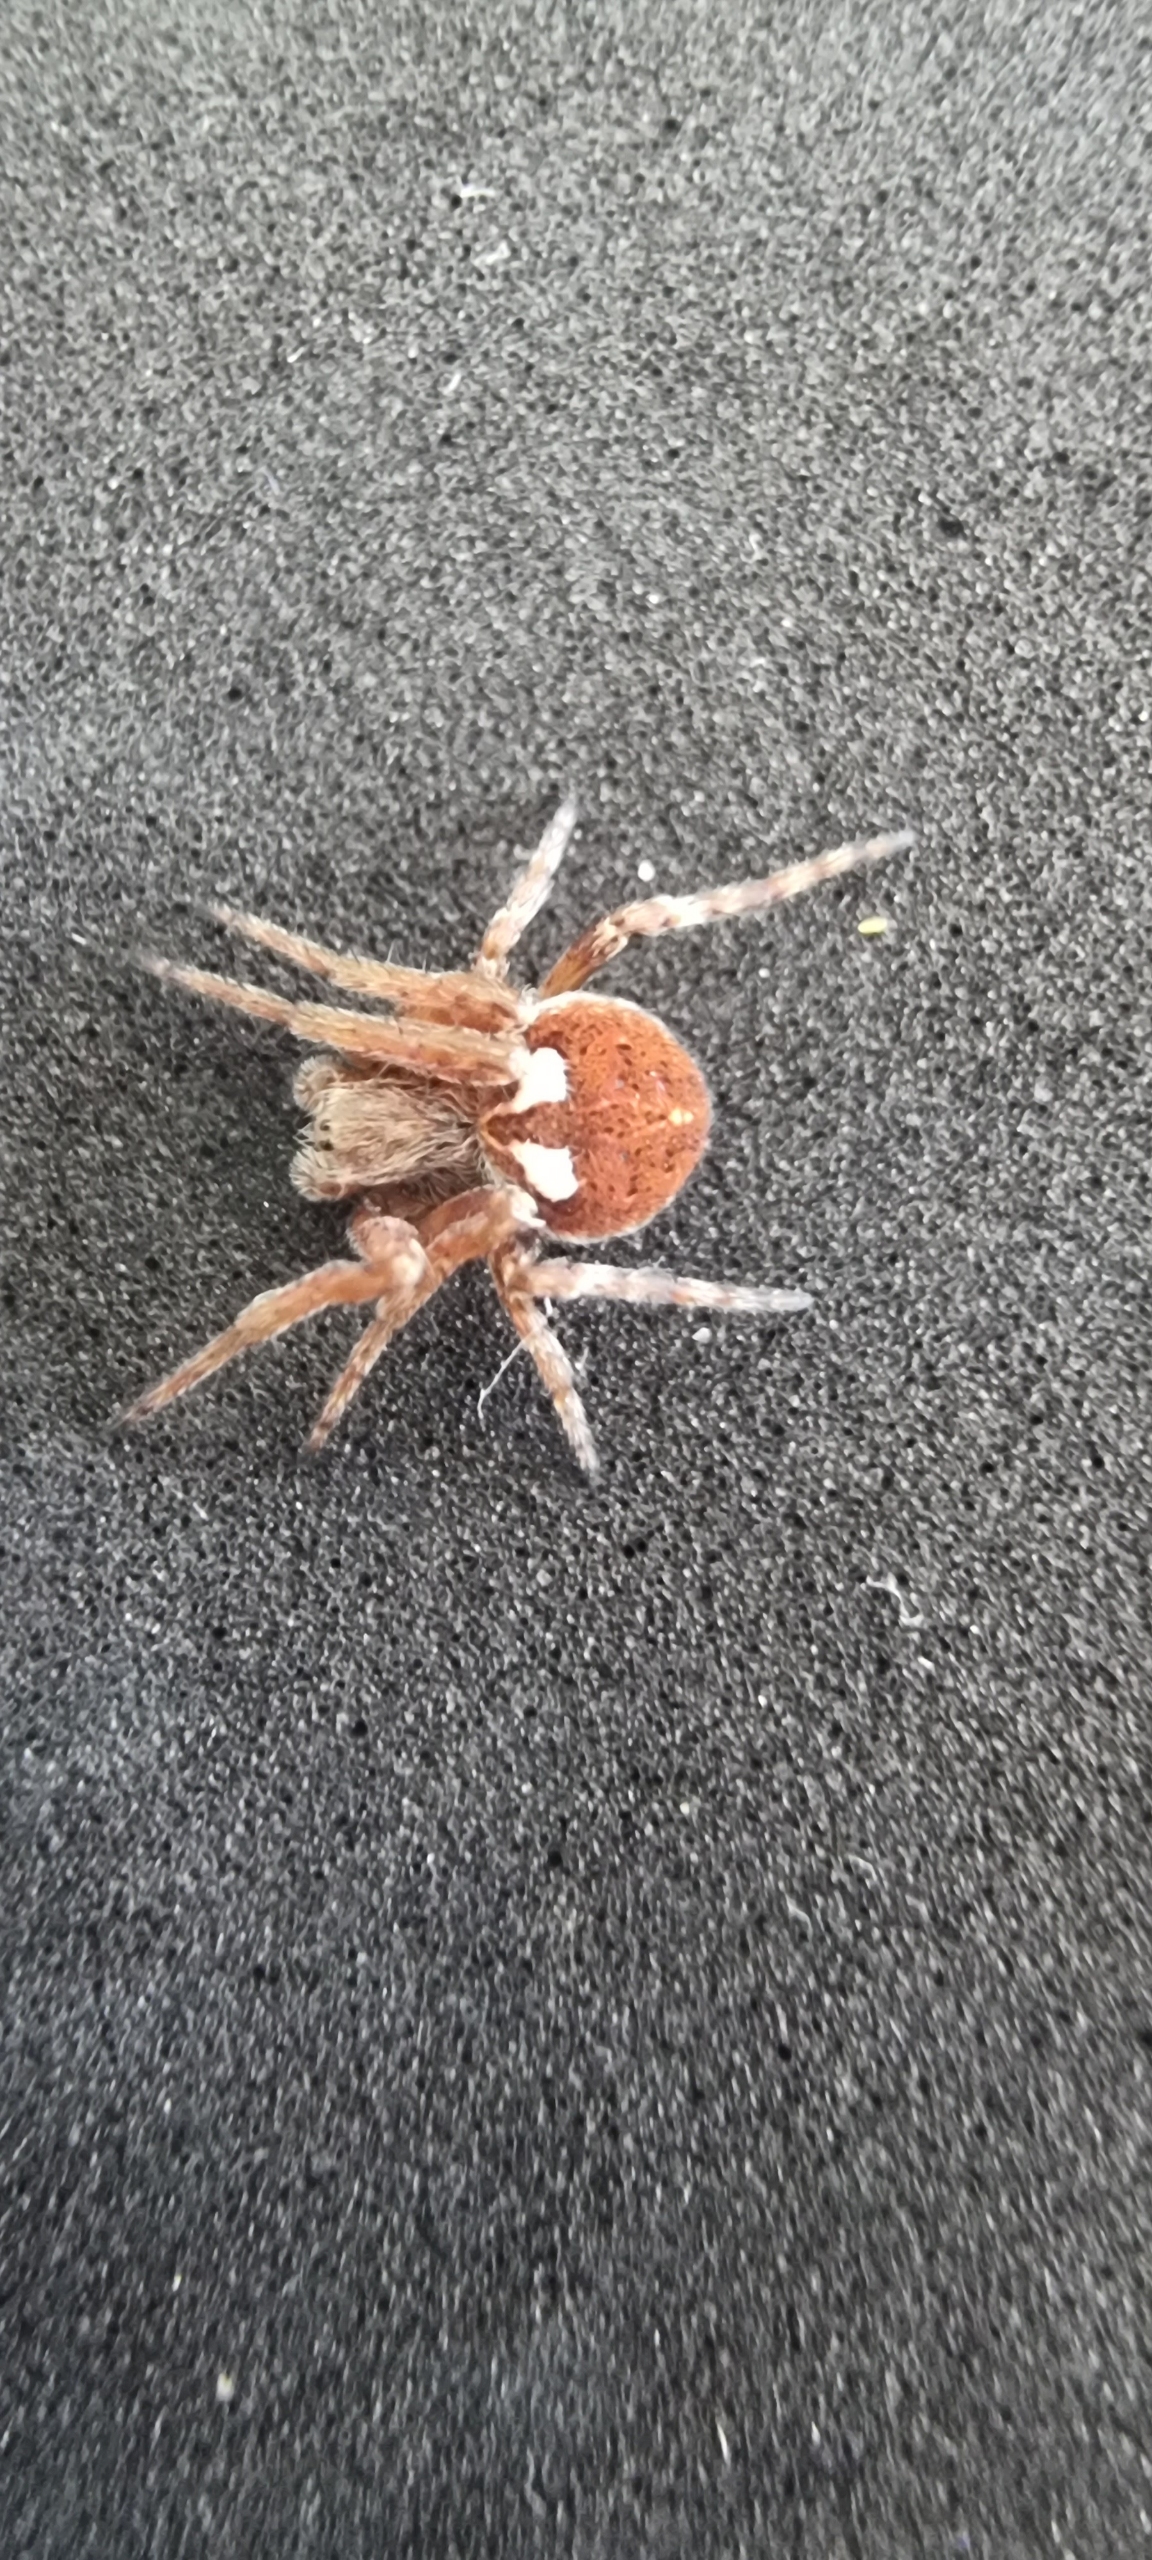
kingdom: Animalia
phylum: Arthropoda
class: Arachnida
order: Araneae
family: Araneidae
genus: Agalenatea
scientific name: Agalenatea redii
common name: Lodden hjulspinder
